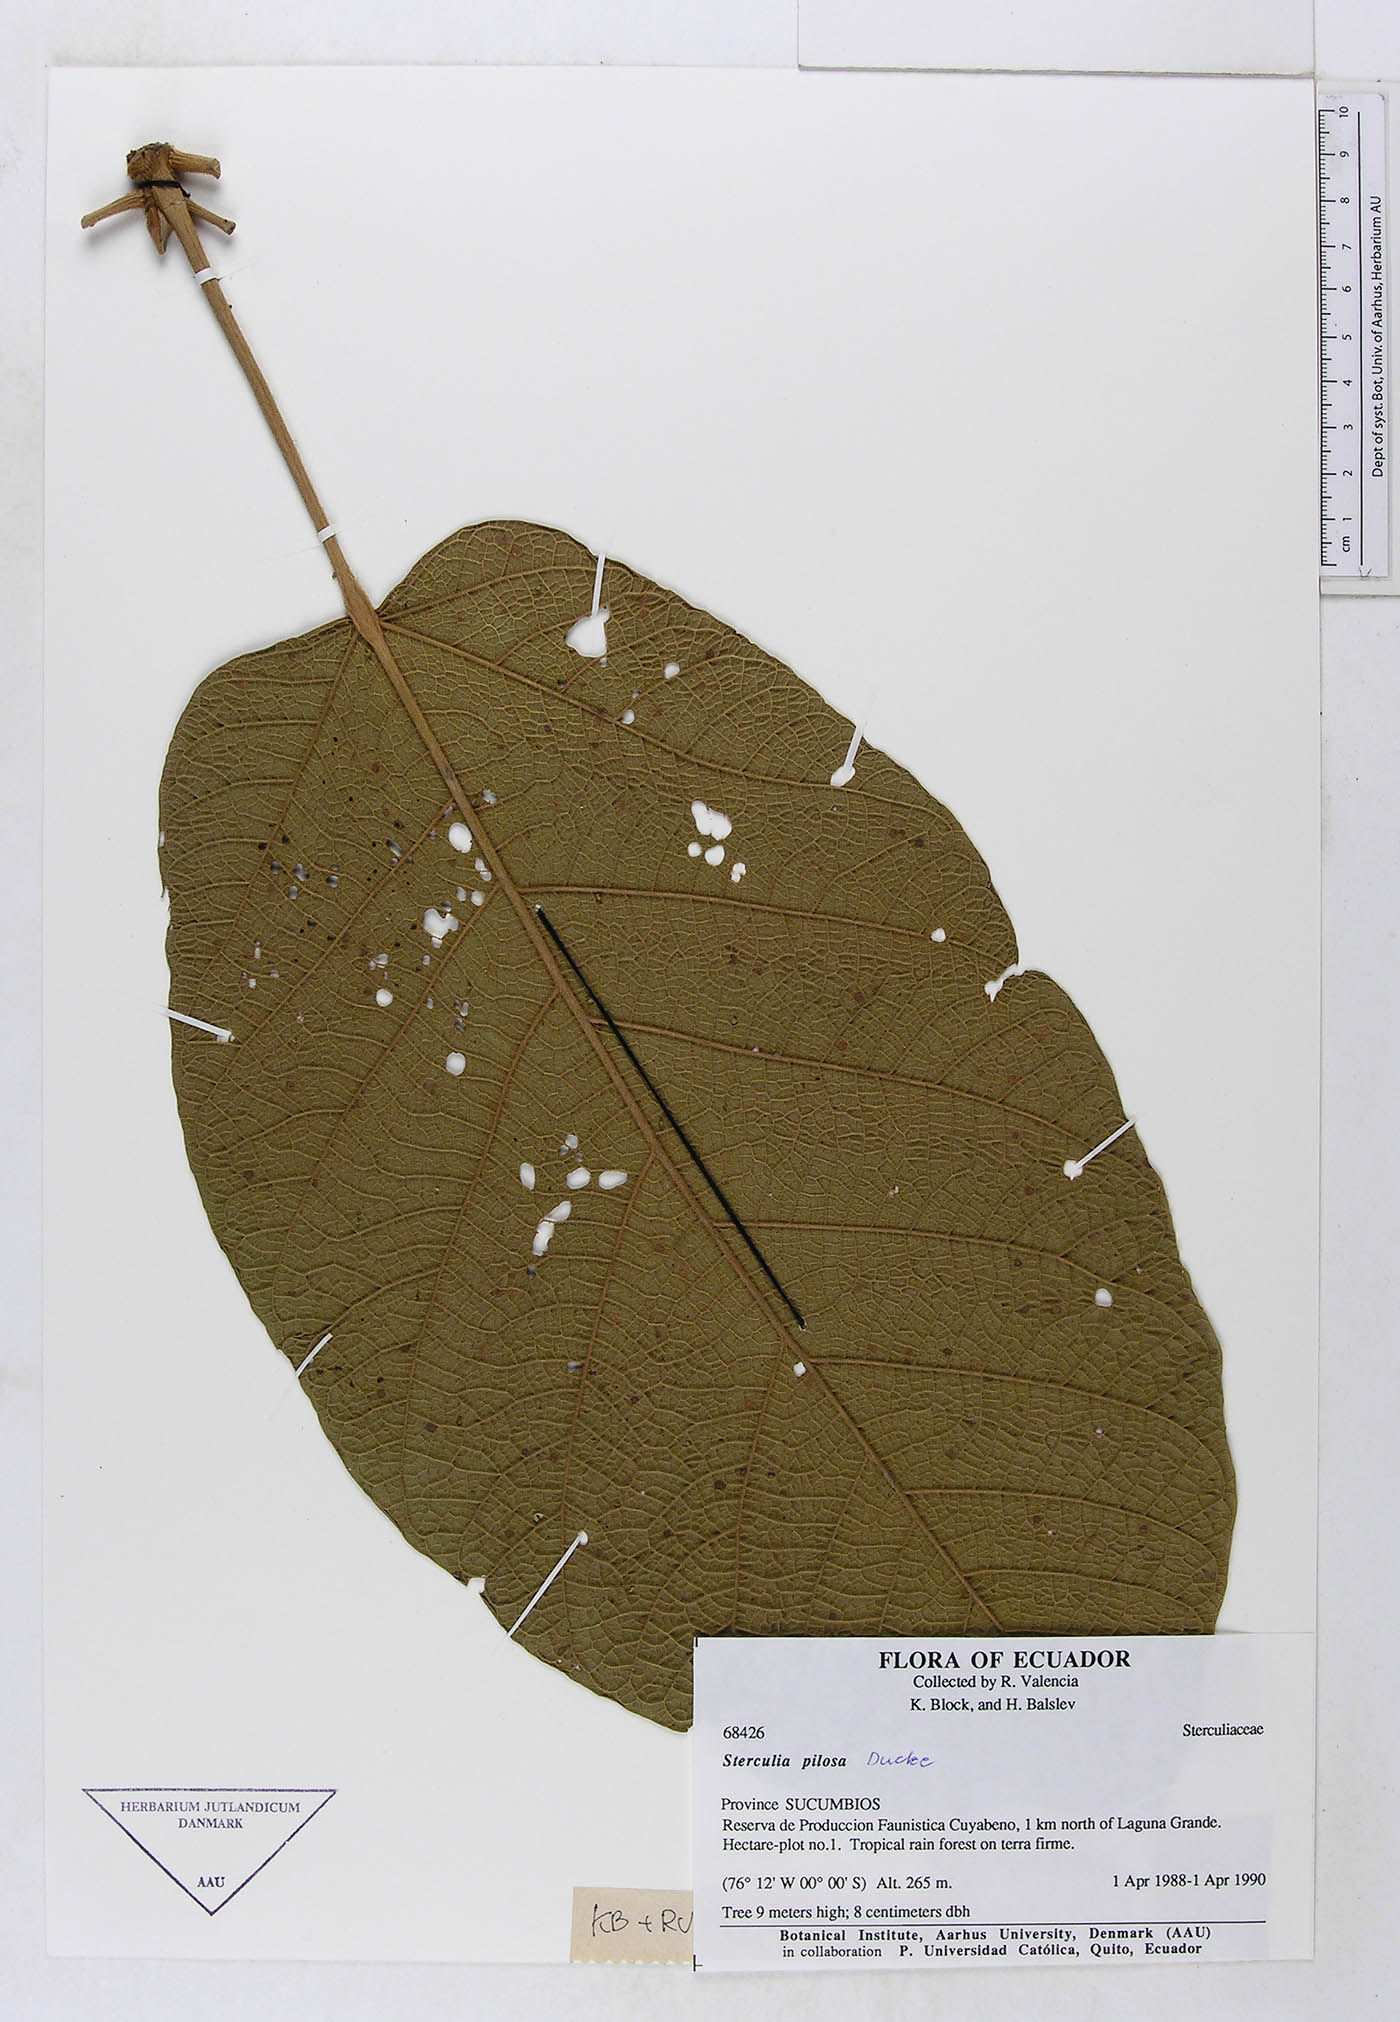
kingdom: Plantae
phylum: Tracheophyta
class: Magnoliopsida
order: Malvales
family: Malvaceae
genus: Sterculia
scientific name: Sterculia speciosa
